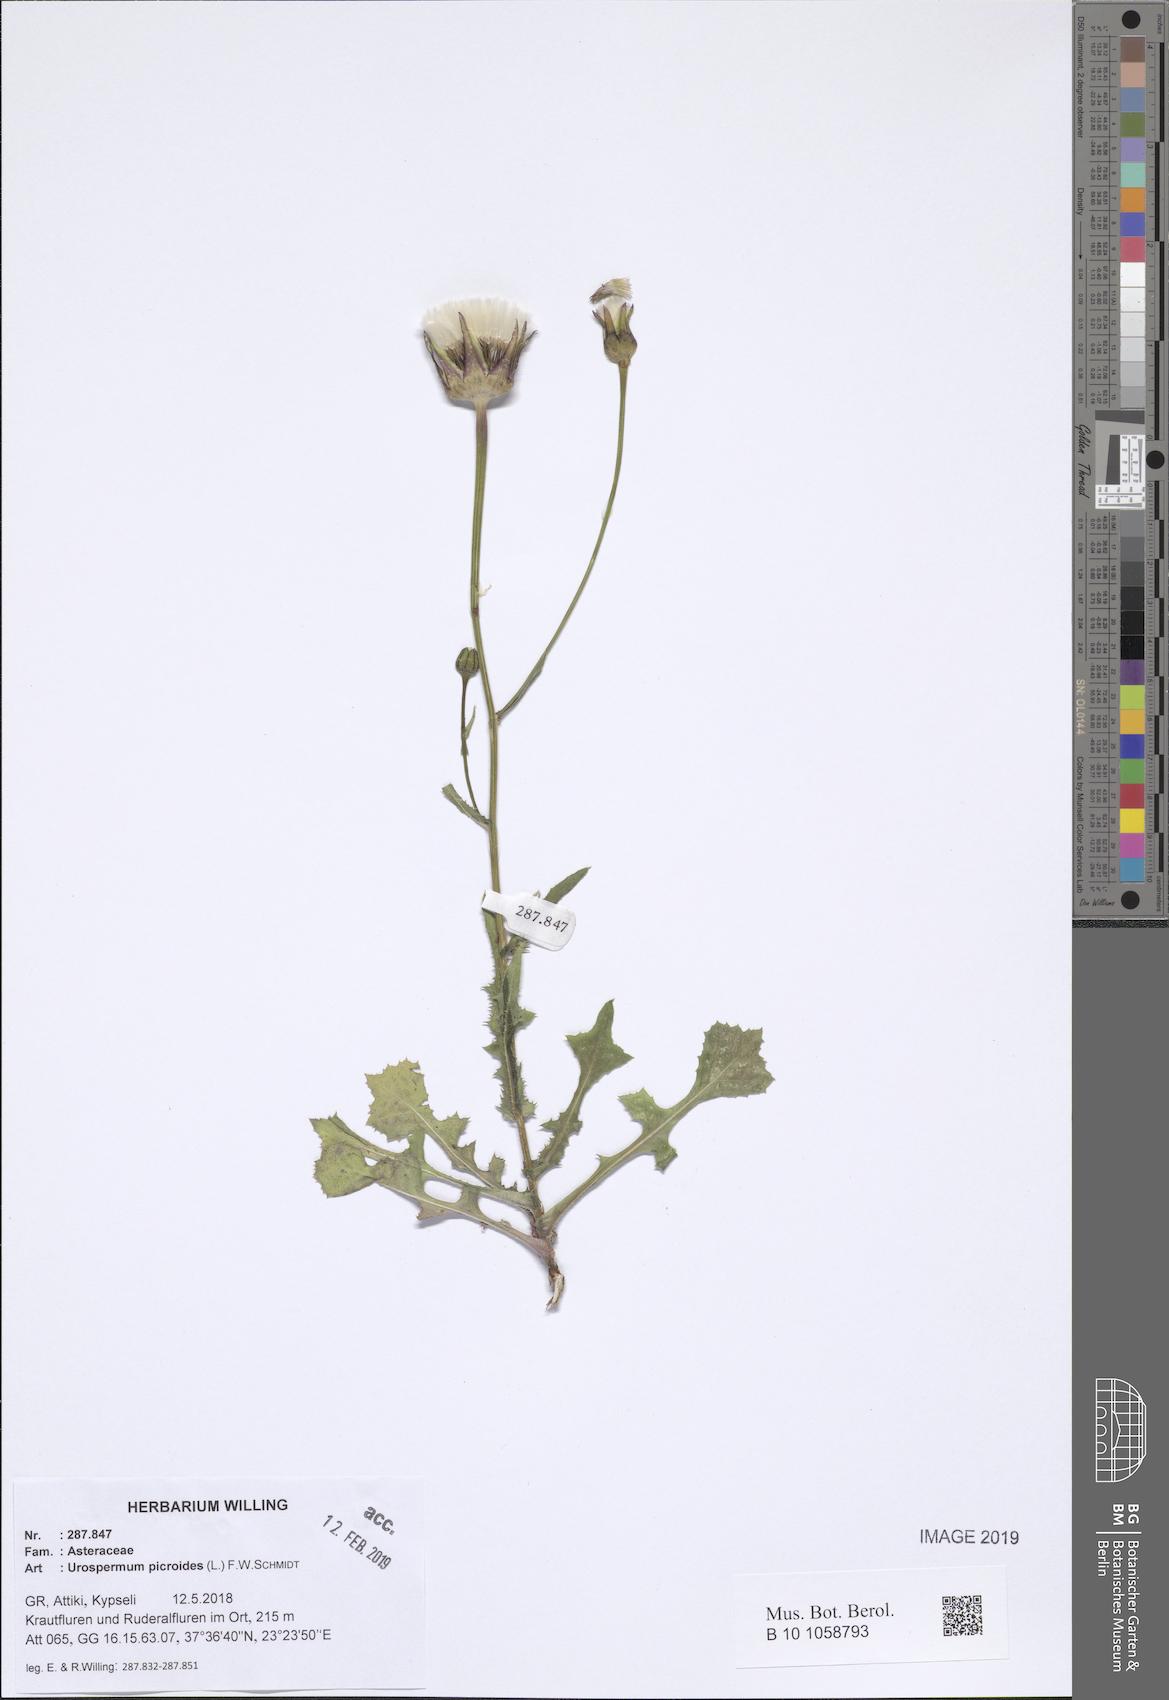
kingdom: Plantae
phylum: Tracheophyta
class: Magnoliopsida
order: Asterales
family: Asteraceae
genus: Urospermum
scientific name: Urospermum picroides
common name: False hawkbit
